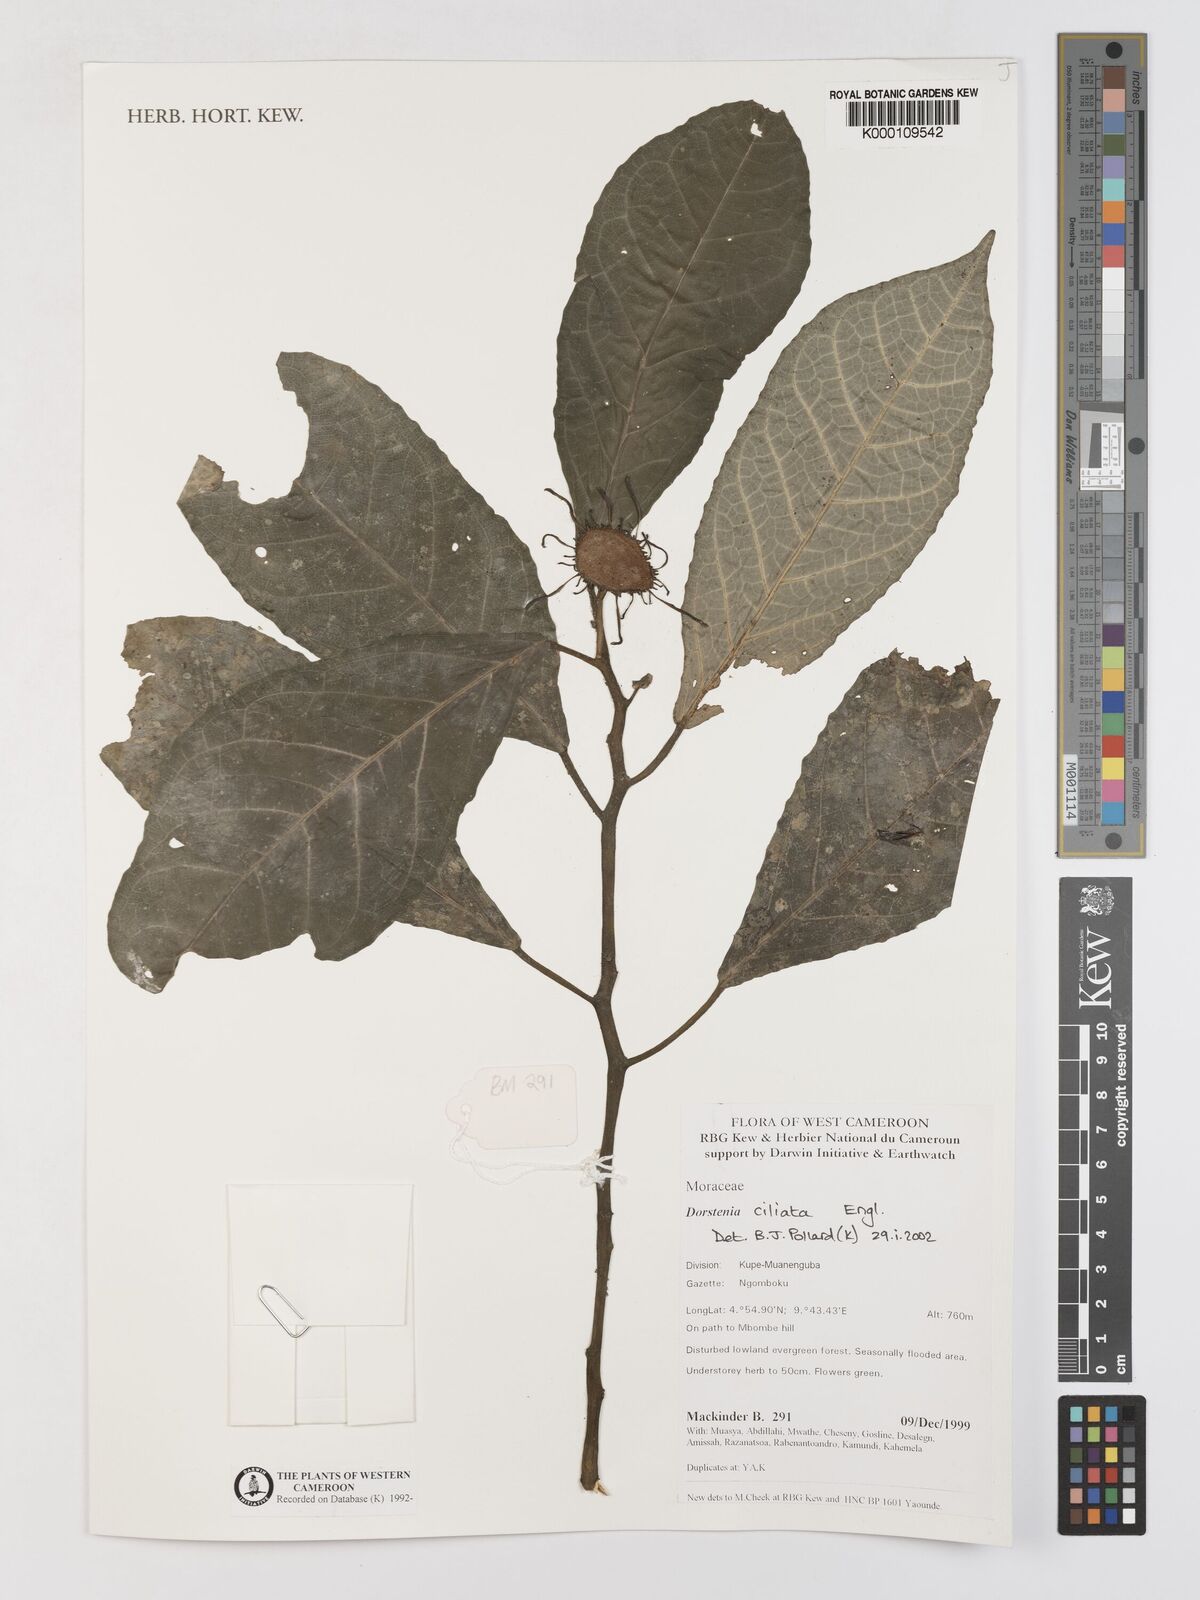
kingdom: Plantae
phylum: Tracheophyta
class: Magnoliopsida
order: Rosales
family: Moraceae
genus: Dorstenia
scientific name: Dorstenia ciliata
